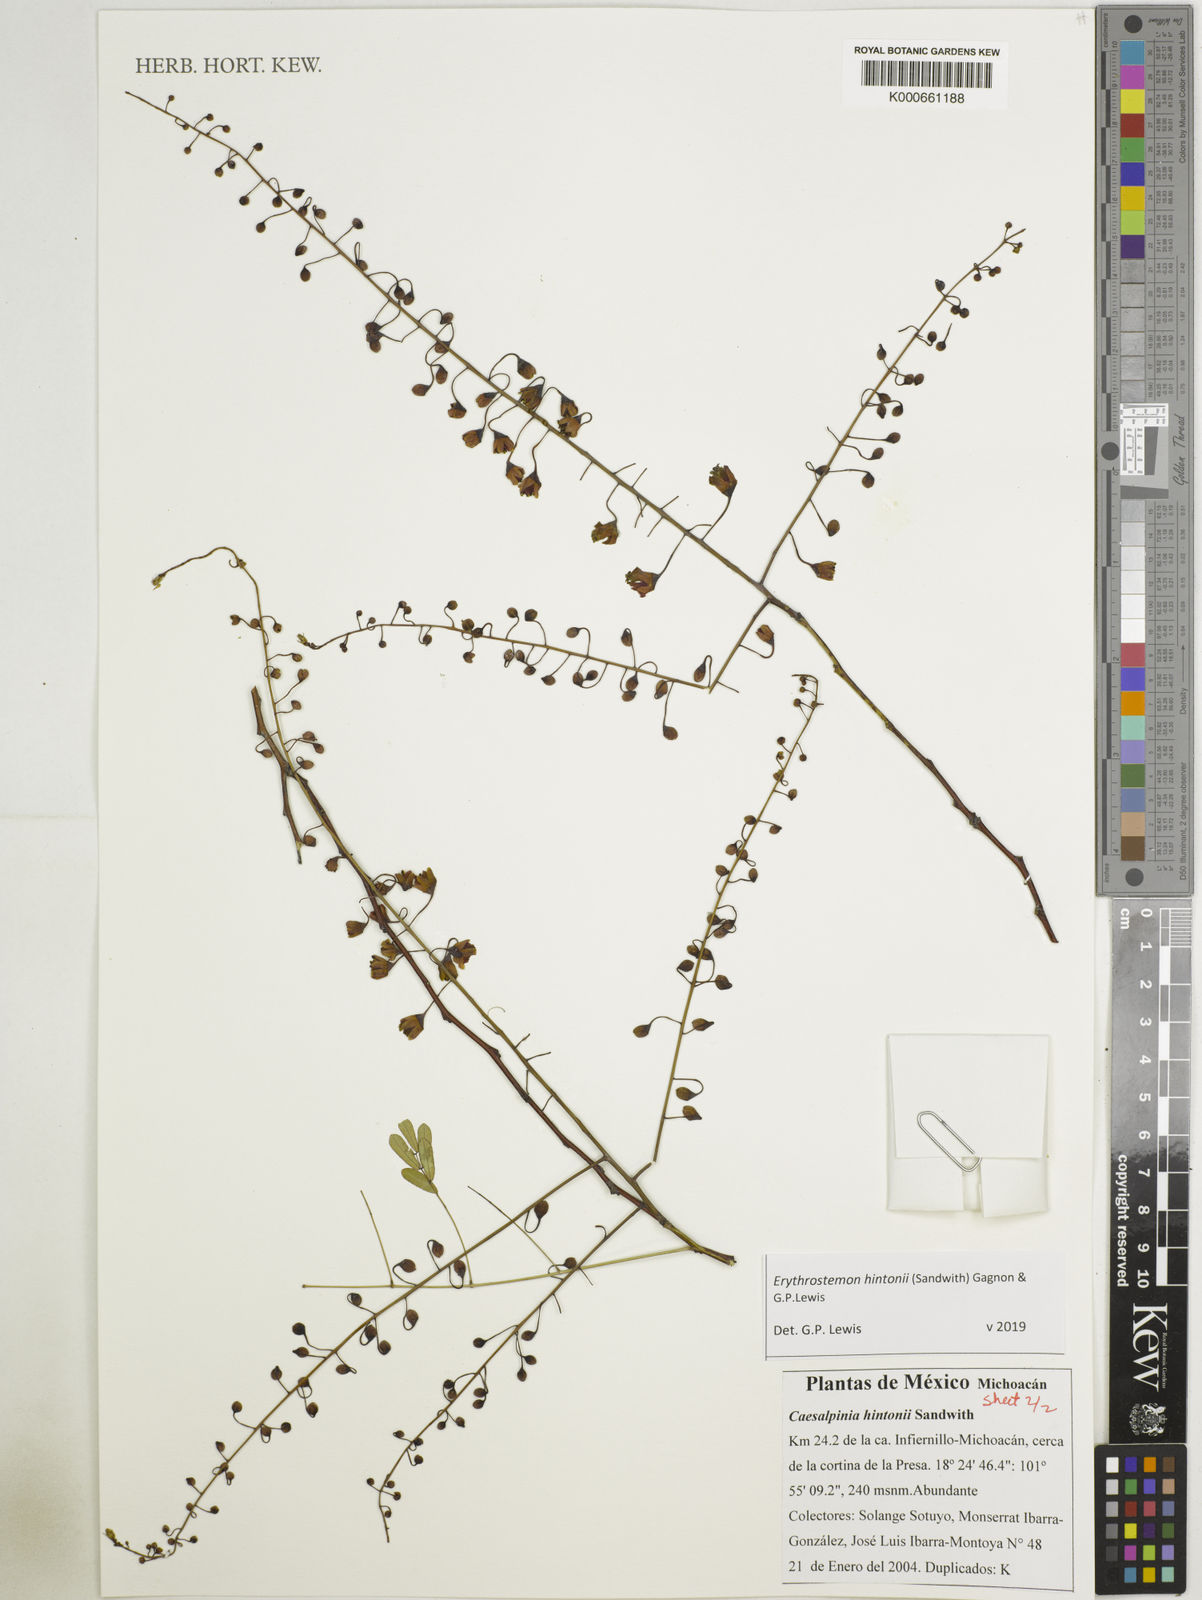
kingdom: Plantae
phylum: Tracheophyta
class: Magnoliopsida
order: Fabales
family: Fabaceae
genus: Erythrostemon
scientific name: Erythrostemon hintonii
